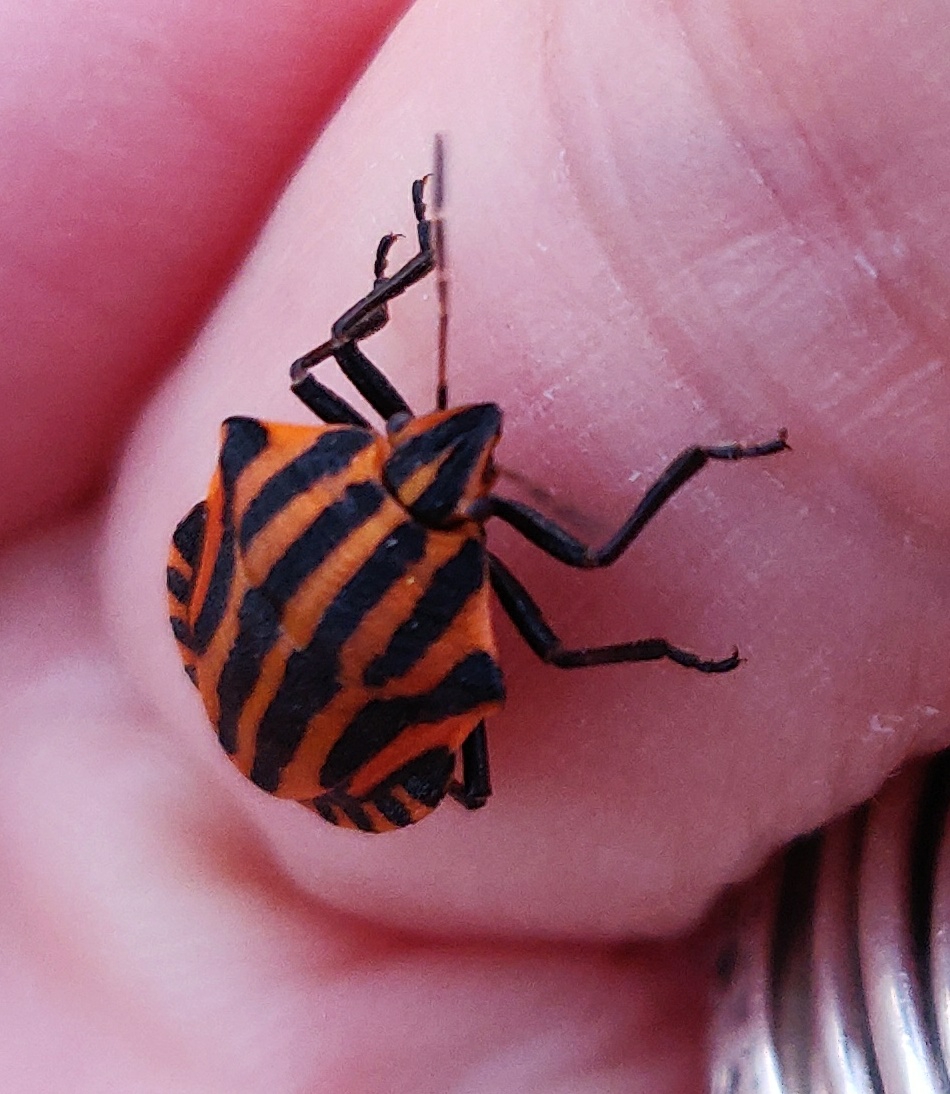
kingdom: Animalia
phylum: Arthropoda
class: Insecta
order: Hemiptera
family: Pentatomidae
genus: Graphosoma
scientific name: Graphosoma italicum
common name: Stribetæge
